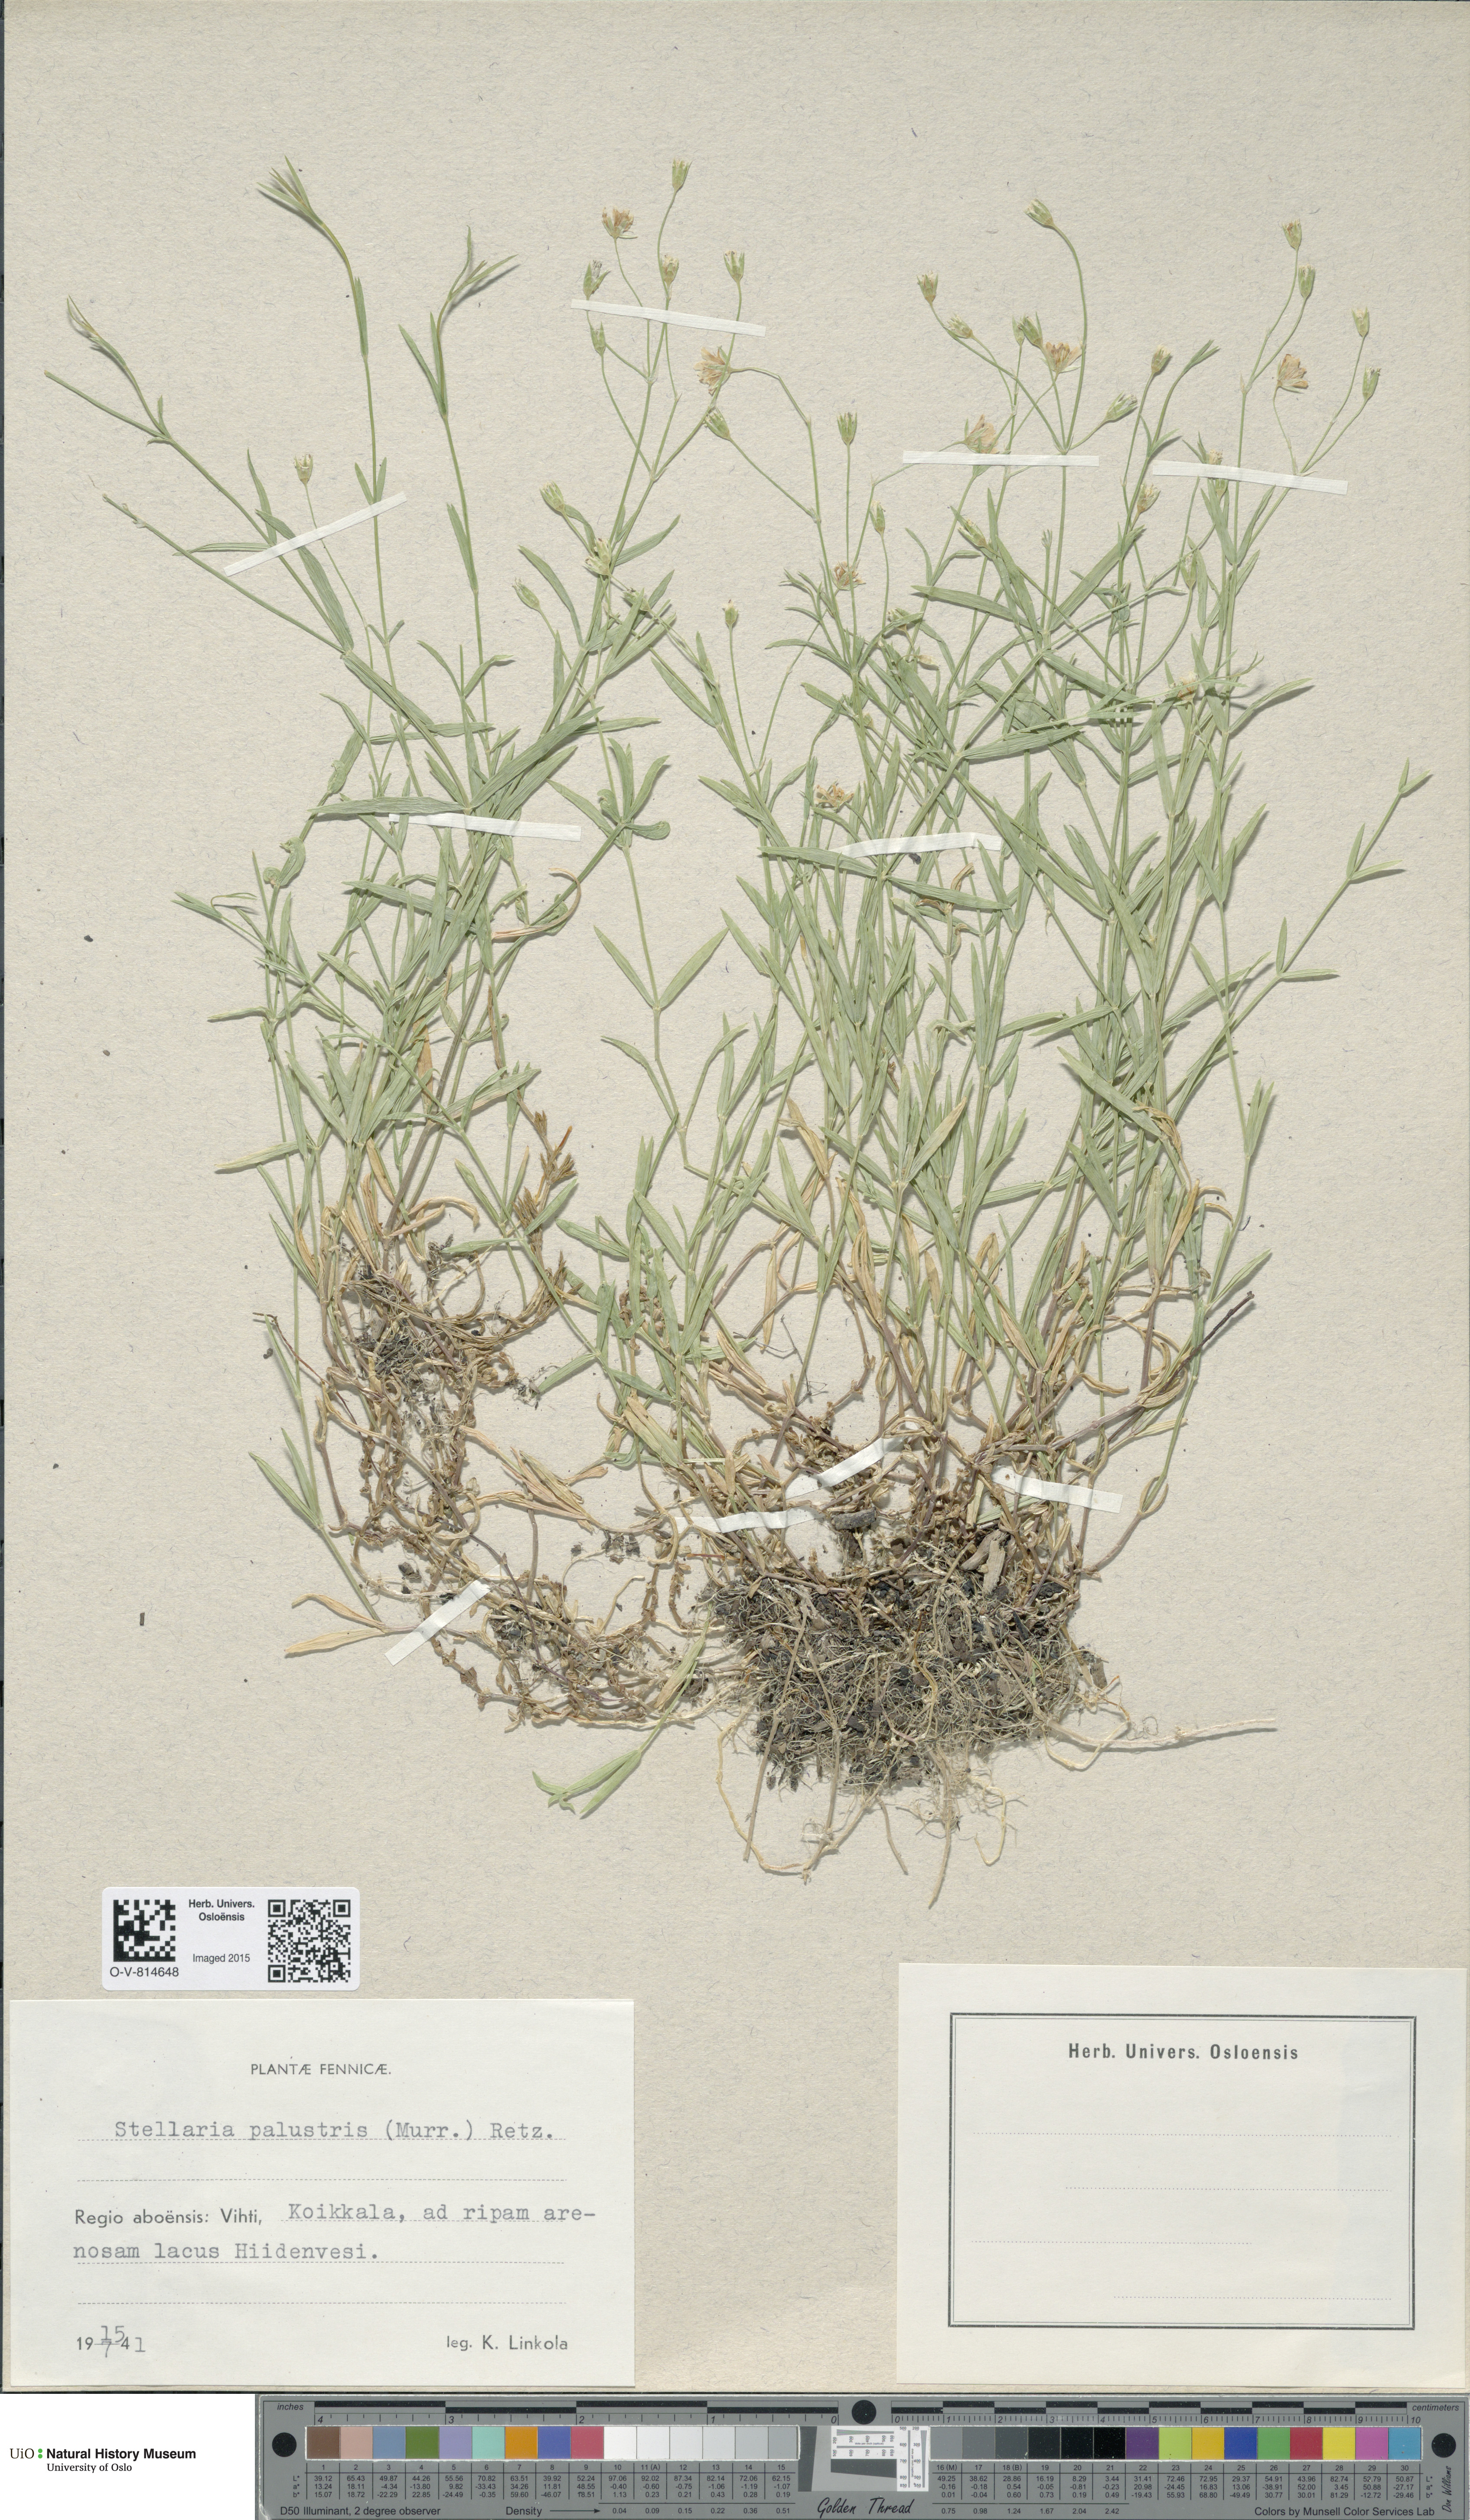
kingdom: Plantae
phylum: Tracheophyta
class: Magnoliopsida
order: Caryophyllales
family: Caryophyllaceae
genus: Stellaria
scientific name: Stellaria palustris
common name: Marsh stitchwort
